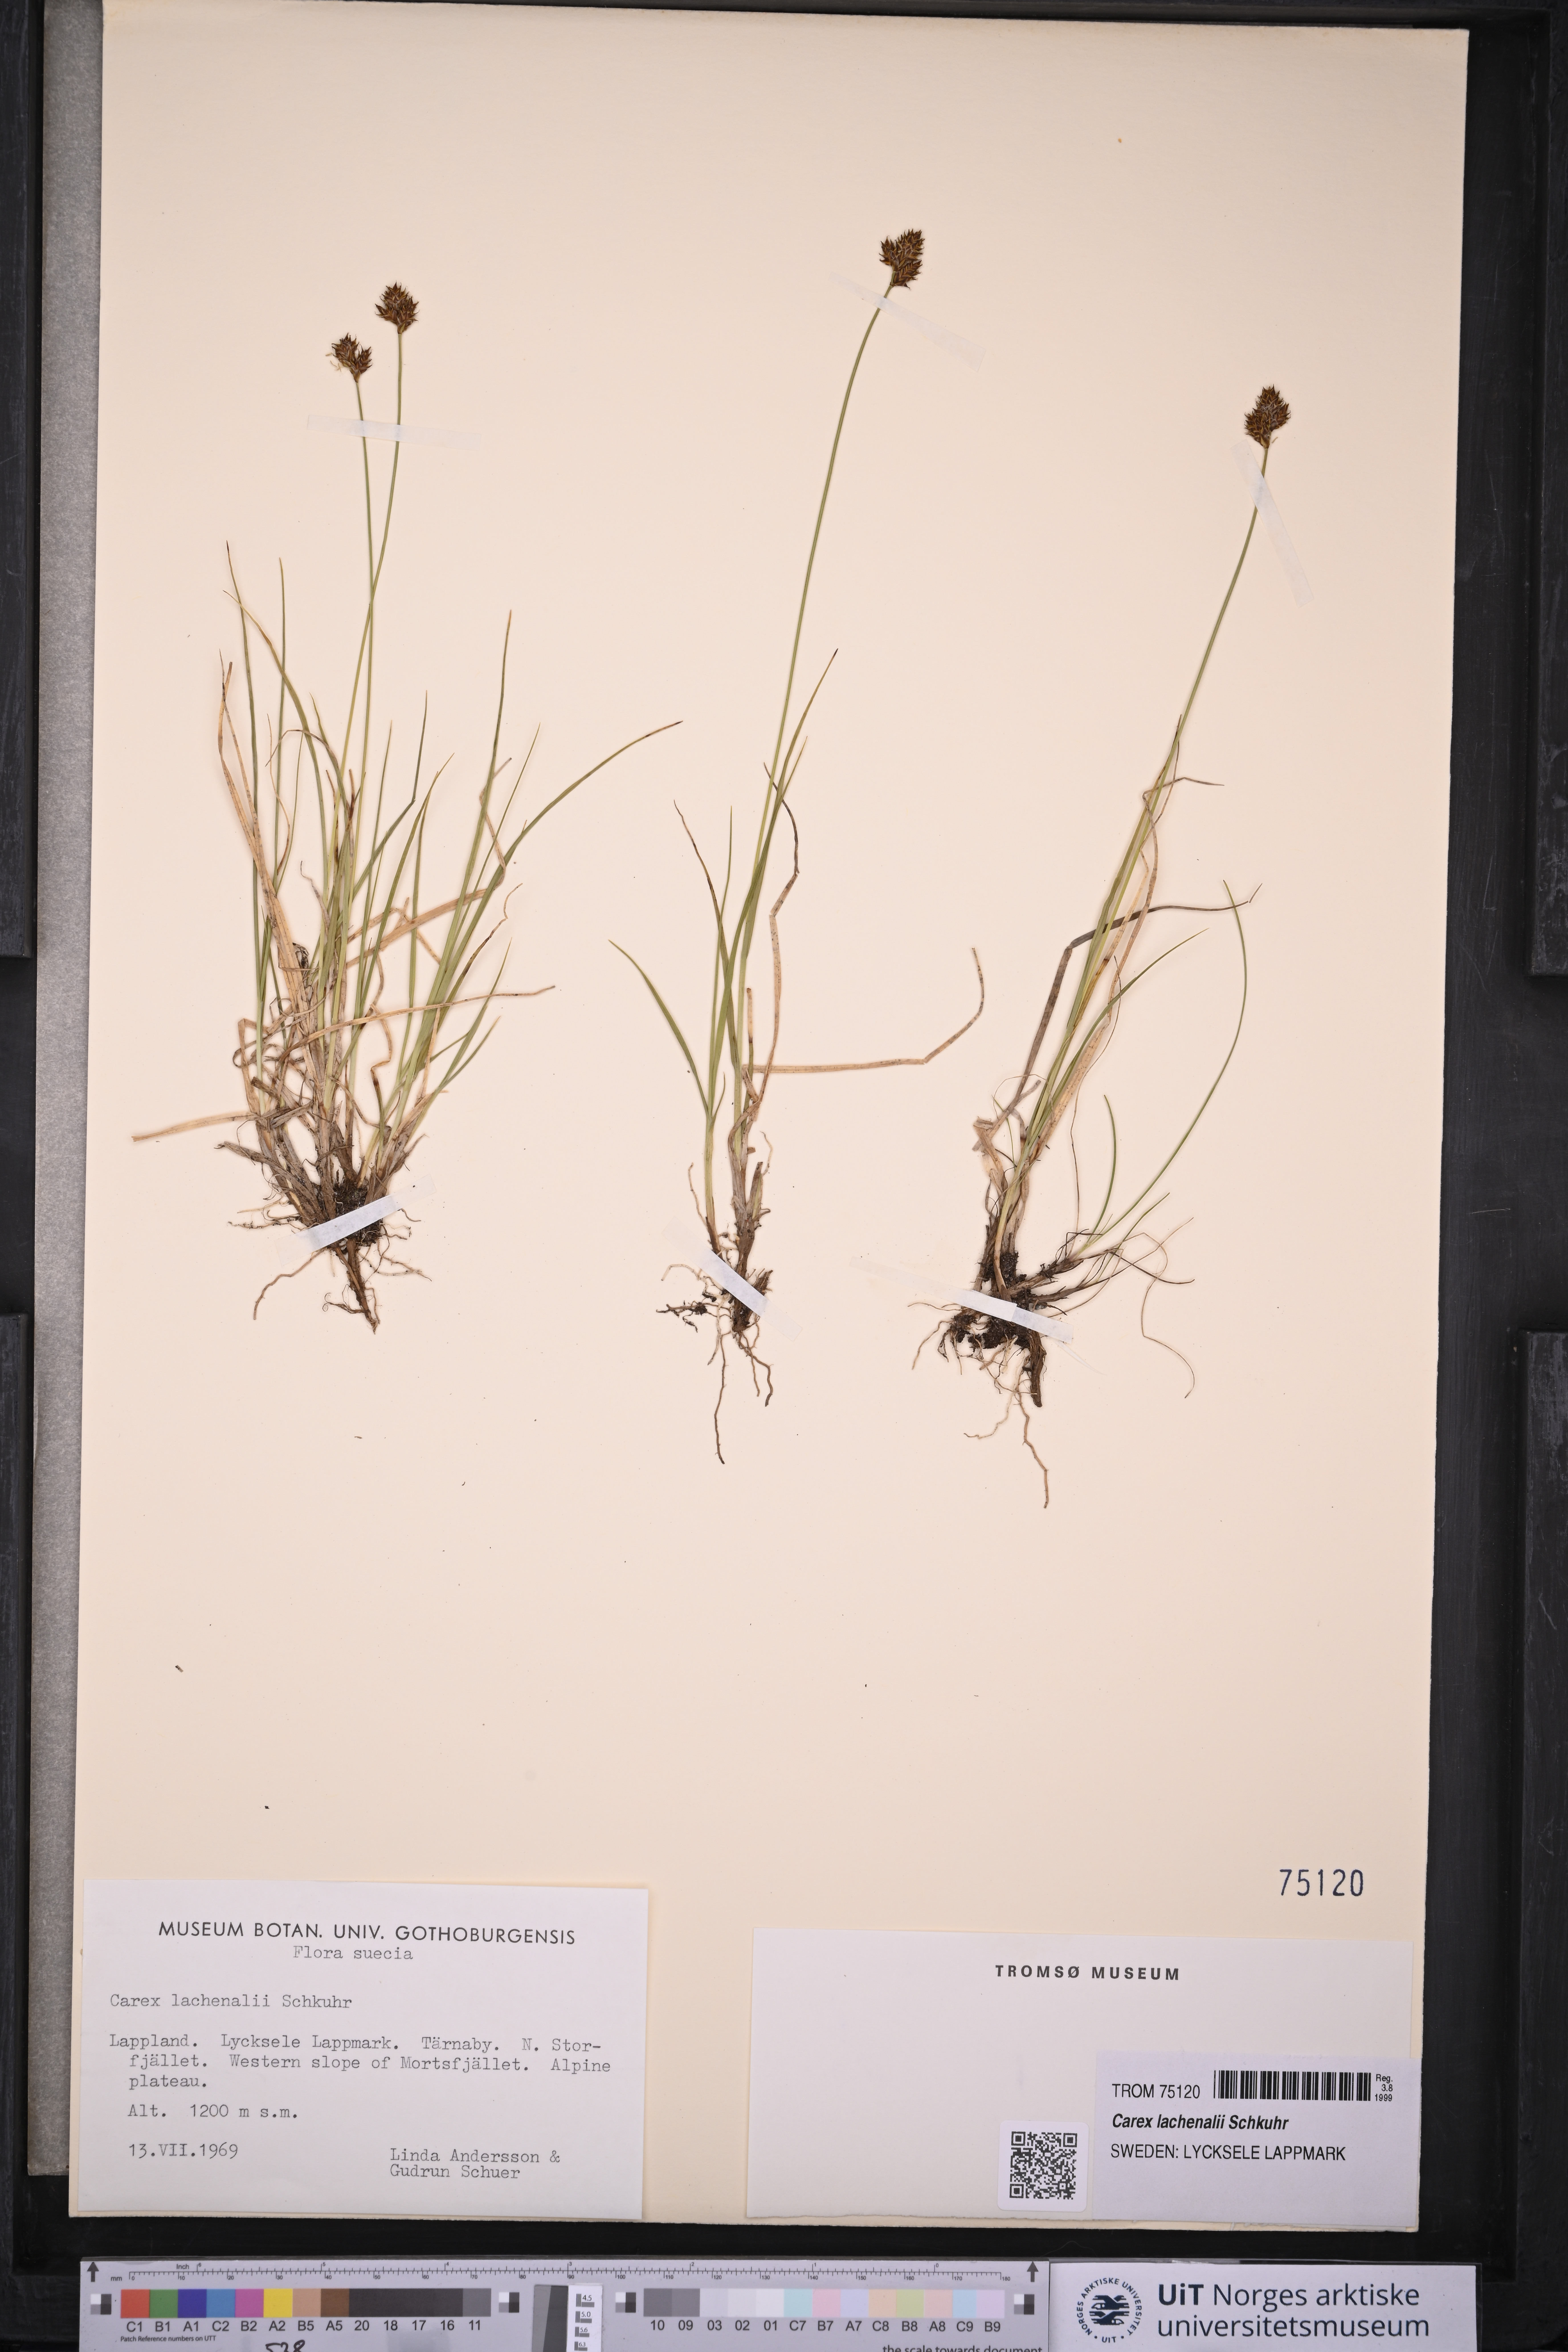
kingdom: Plantae
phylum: Tracheophyta
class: Liliopsida
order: Poales
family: Cyperaceae
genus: Carex
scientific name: Carex lachenalii
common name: Hare's-foot sedge
